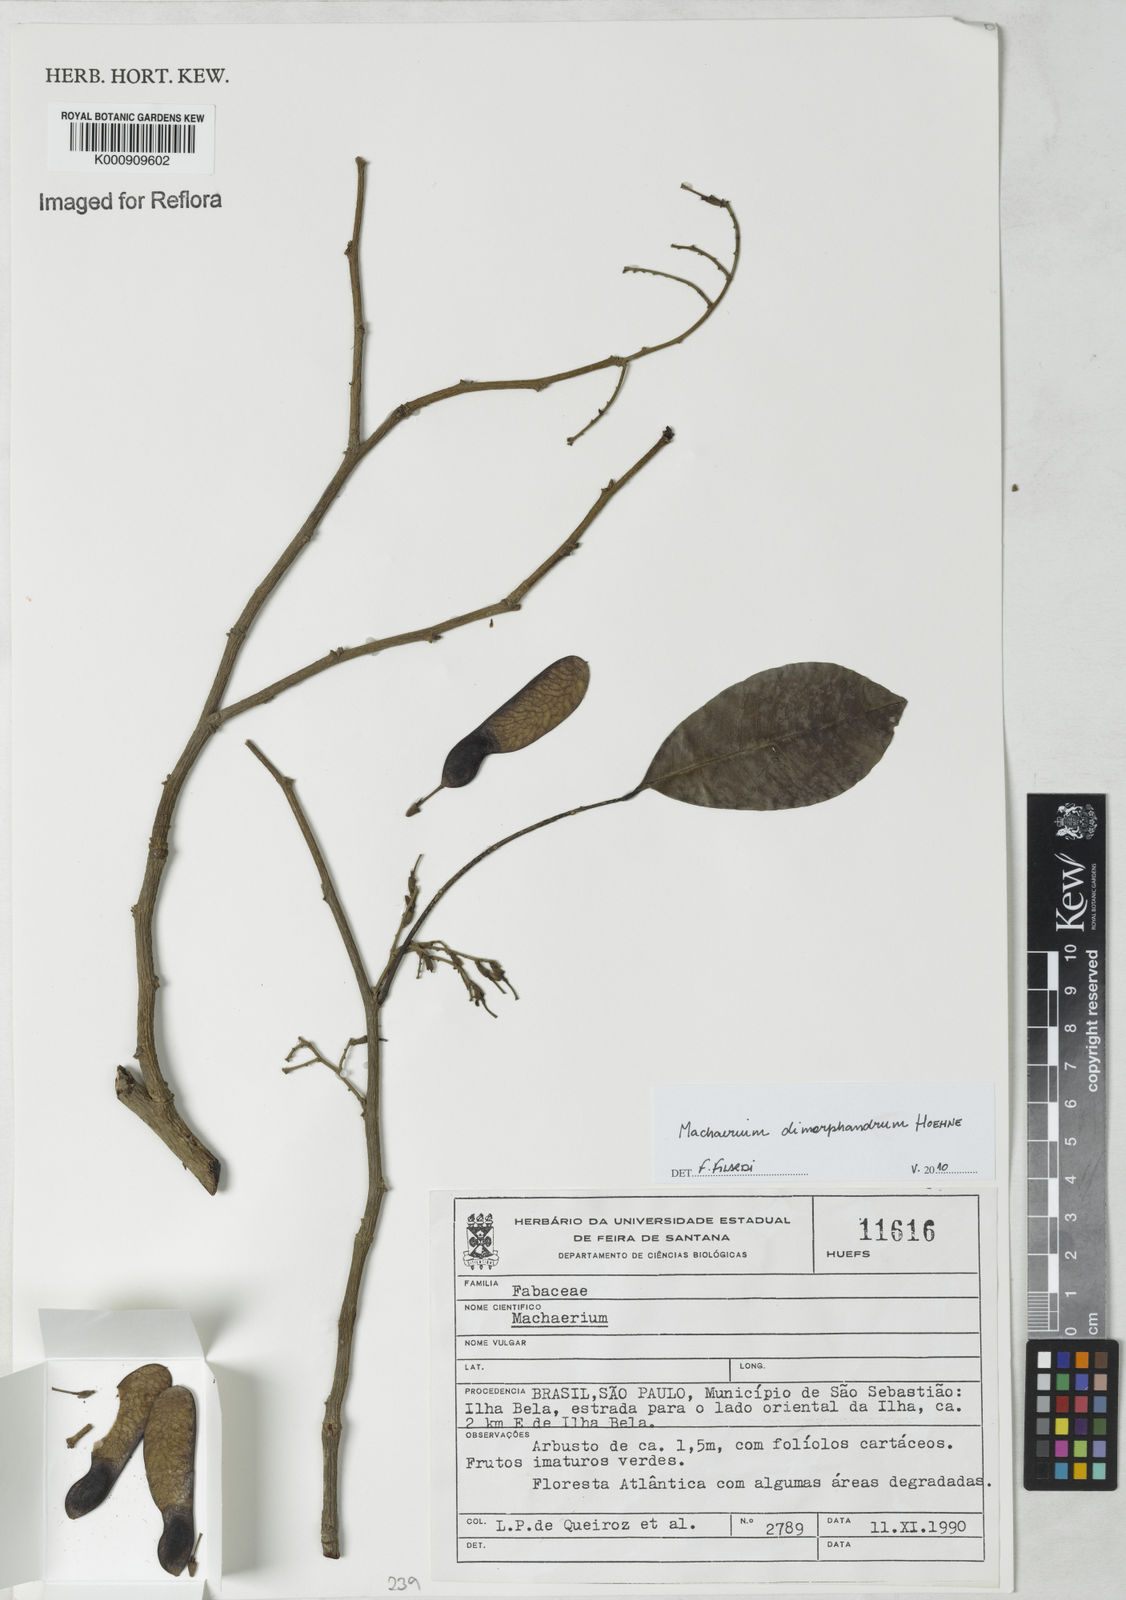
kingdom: Plantae
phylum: Tracheophyta
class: Magnoliopsida
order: Fabales
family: Fabaceae
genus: Machaerium
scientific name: Machaerium debile
